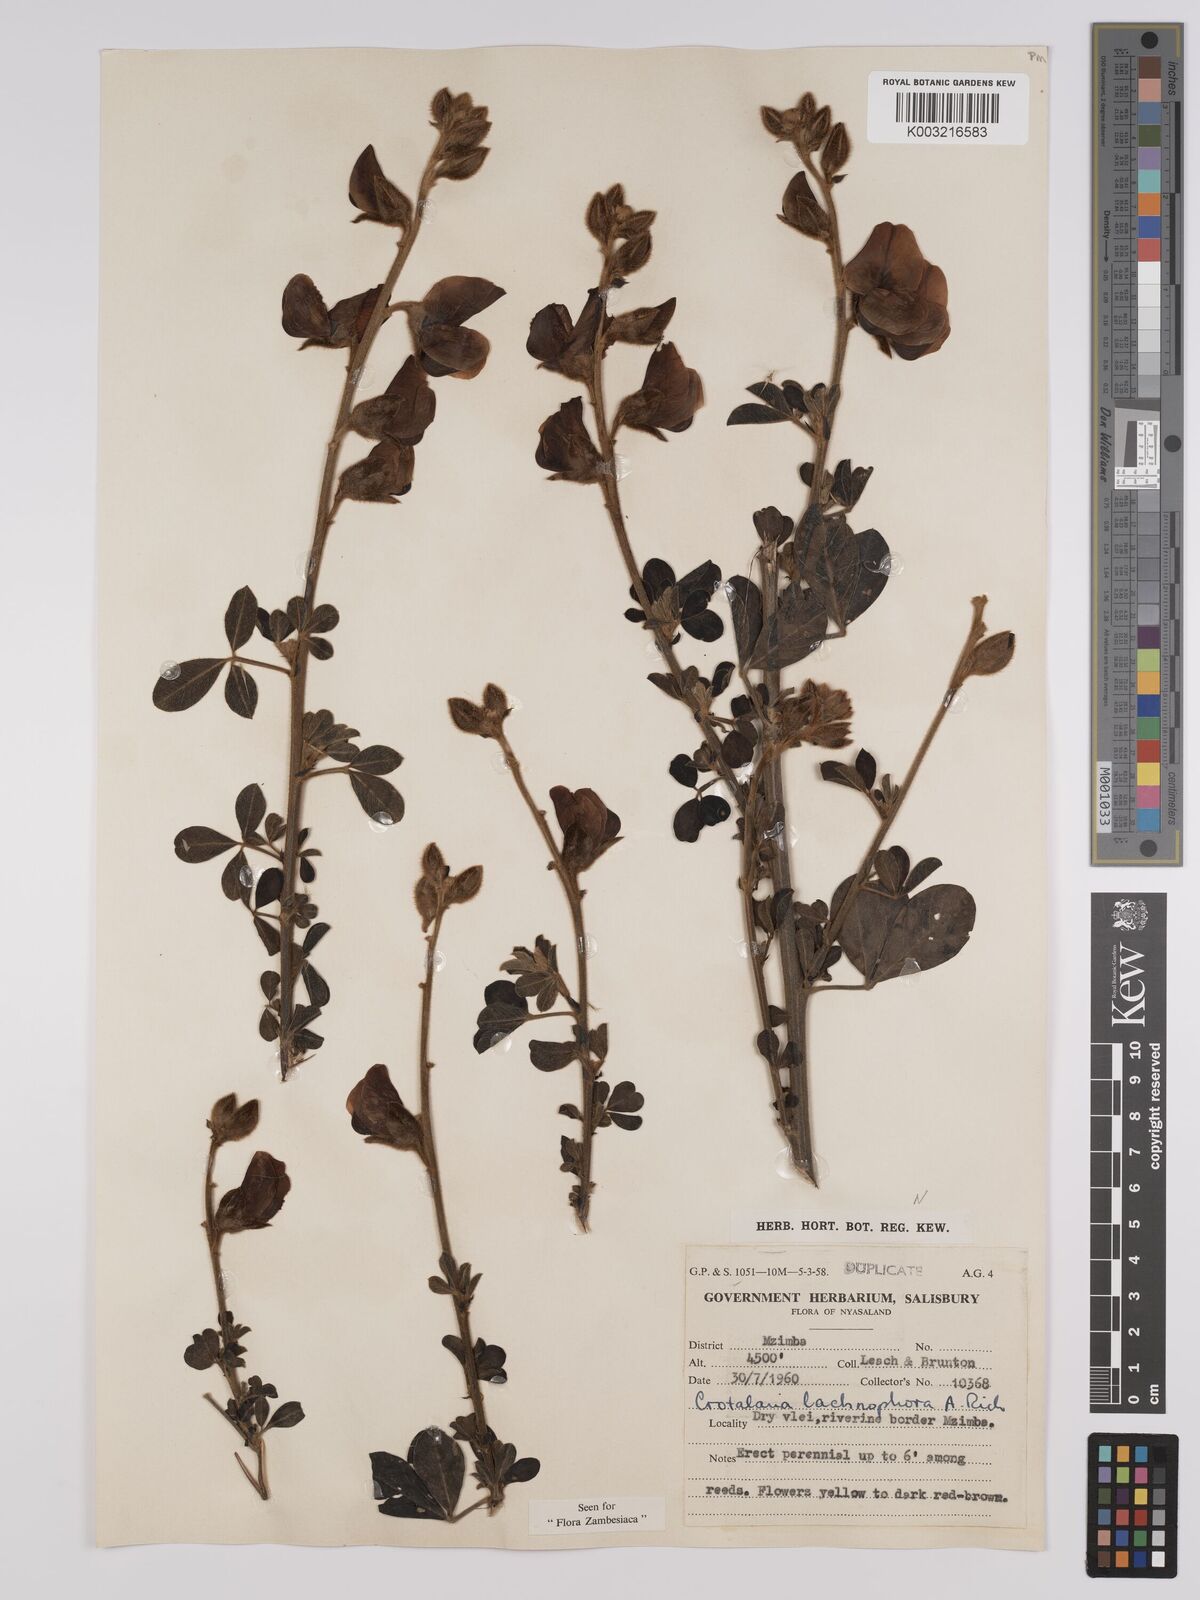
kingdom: Plantae
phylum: Tracheophyta
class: Magnoliopsida
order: Fabales
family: Fabaceae
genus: Crotalaria
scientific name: Crotalaria lachnophora
